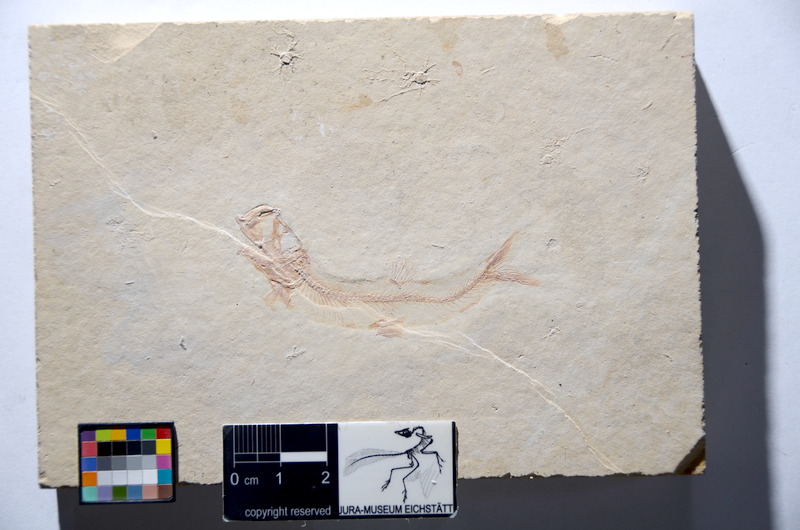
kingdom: Animalia
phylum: Chordata
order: Salmoniformes
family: Orthogonikleithridae
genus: Leptolepides
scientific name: Leptolepides sprattiformis
